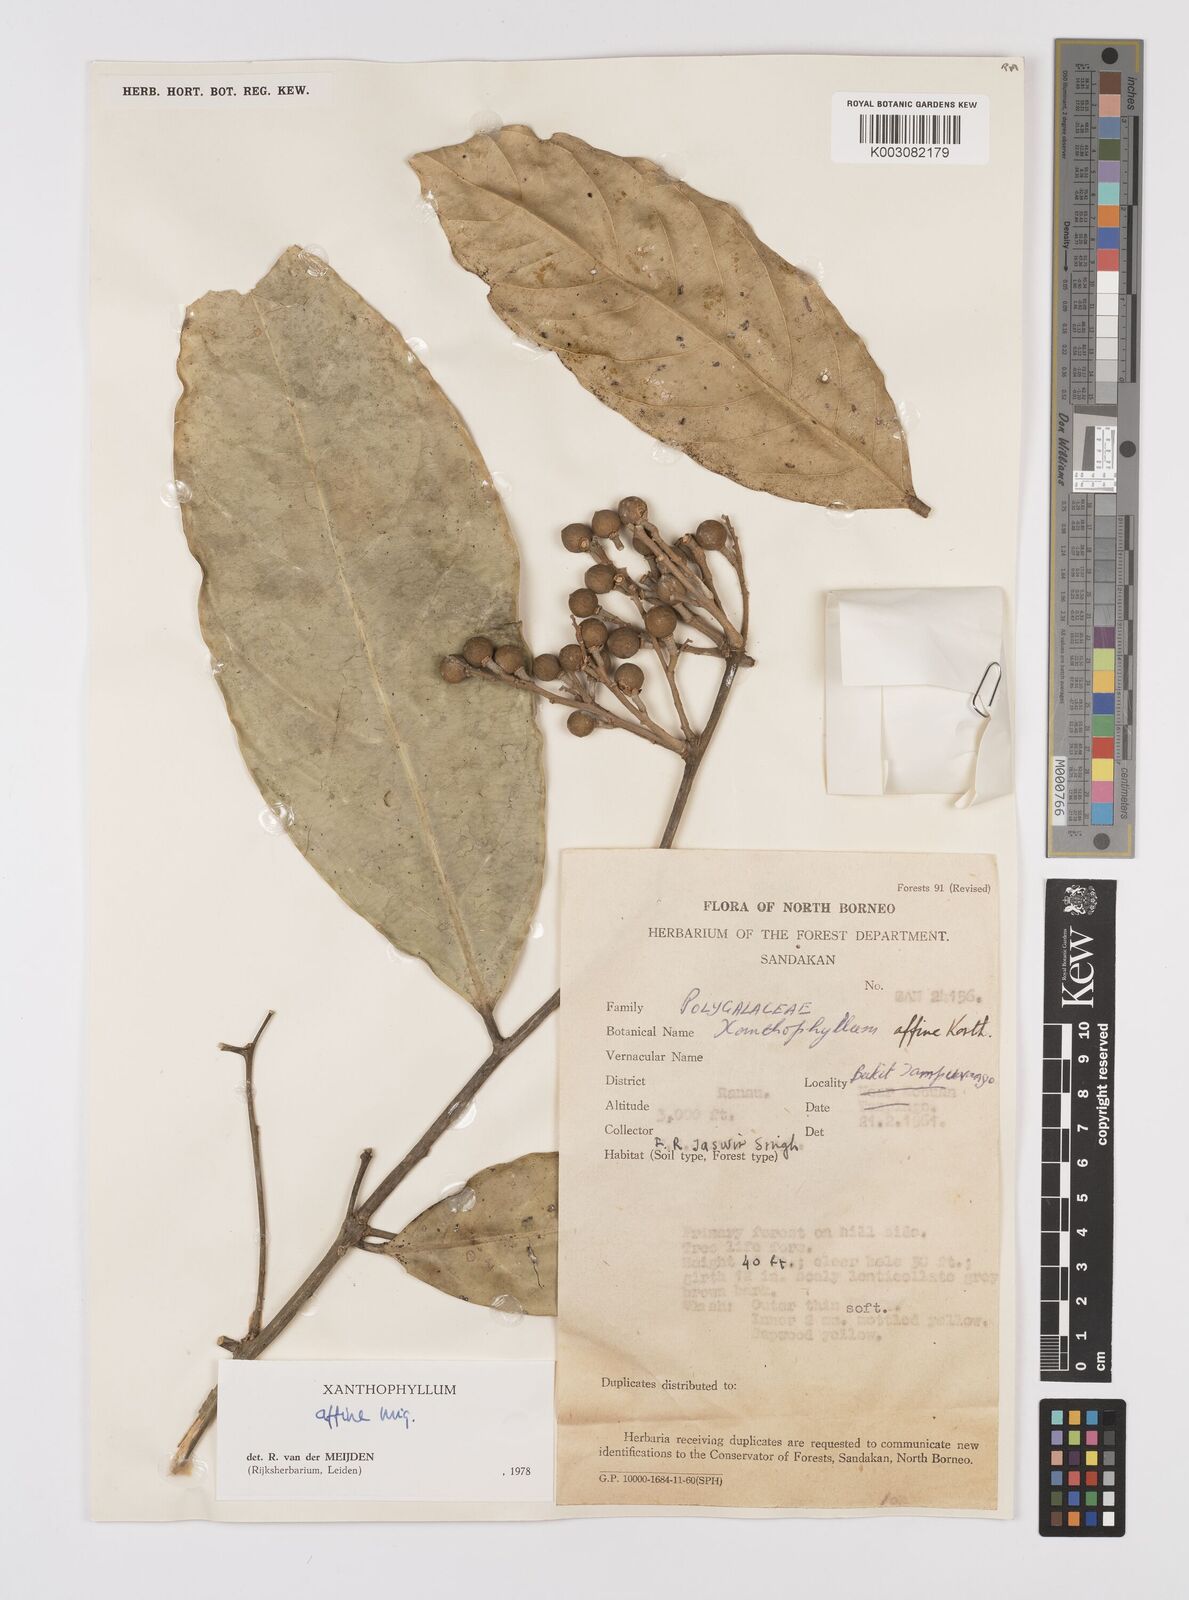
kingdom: Plantae
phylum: Tracheophyta
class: Magnoliopsida
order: Fabales
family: Polygalaceae
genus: Xanthophyllum
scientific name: Xanthophyllum flavescens
